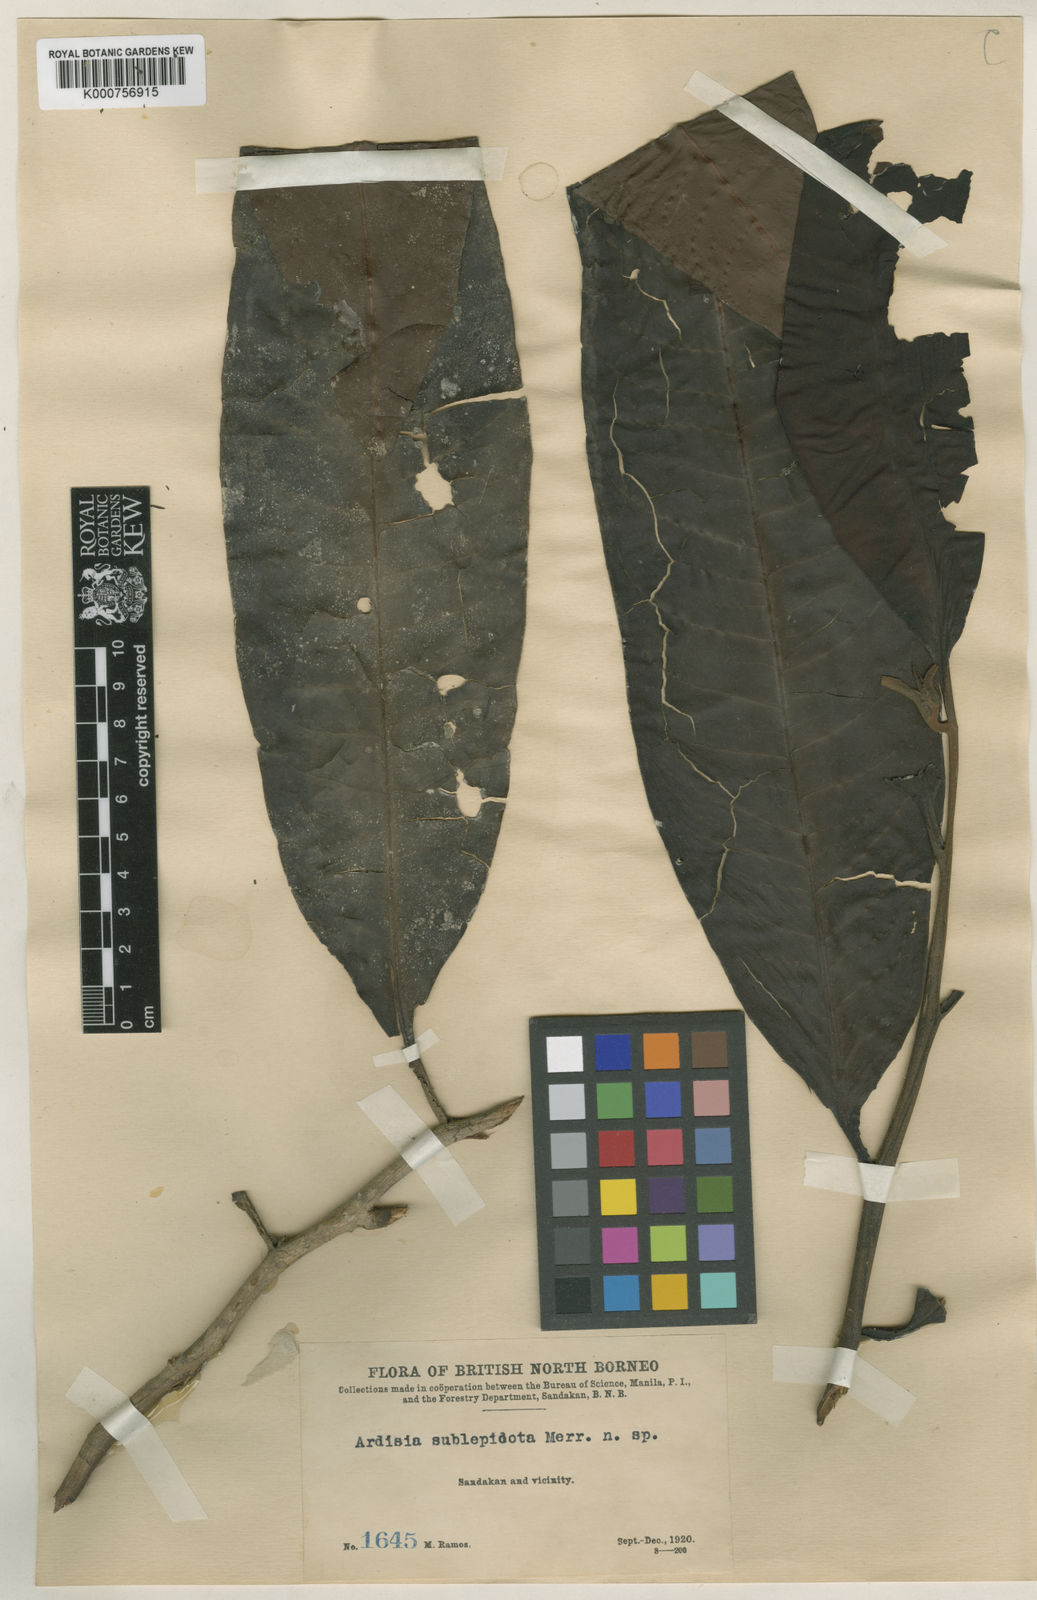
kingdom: Plantae
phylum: Tracheophyta
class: Magnoliopsida
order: Ericales
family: Primulaceae
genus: Ardisia
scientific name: Ardisia sublepidota
